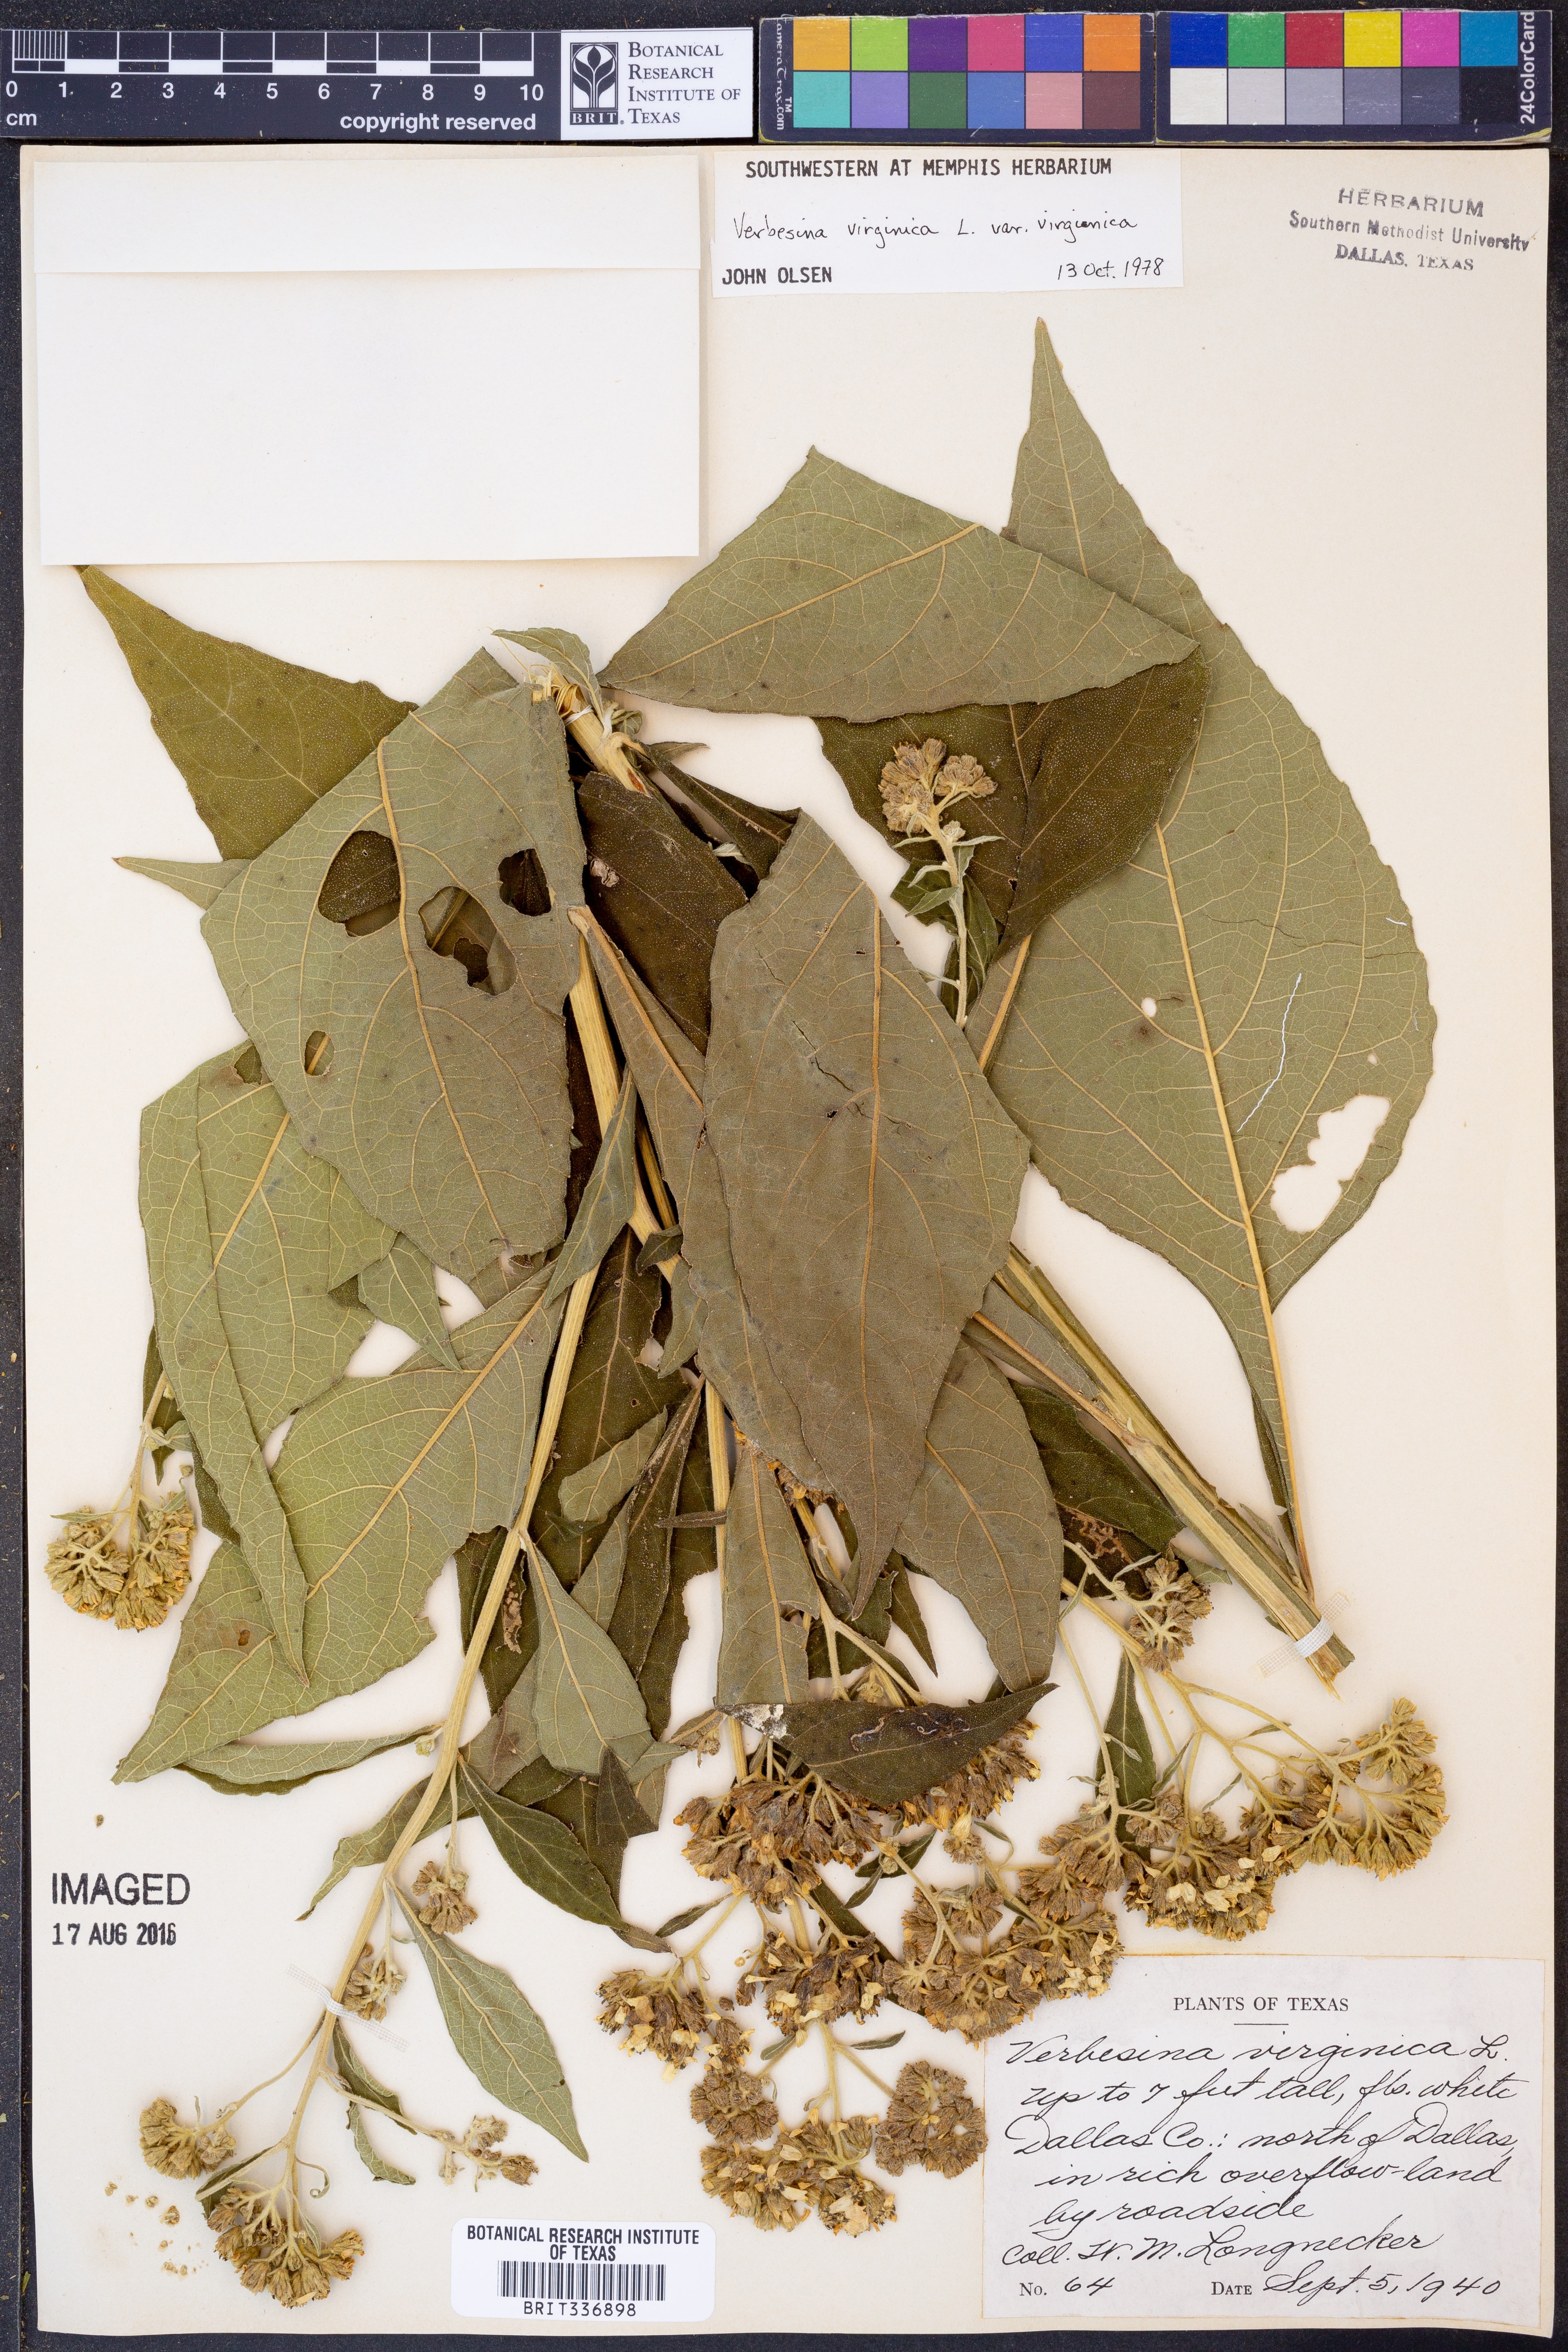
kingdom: Plantae
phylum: Tracheophyta
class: Magnoliopsida
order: Asterales
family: Asteraceae
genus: Verbesina
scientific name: Verbesina virginica
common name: Frostweed
